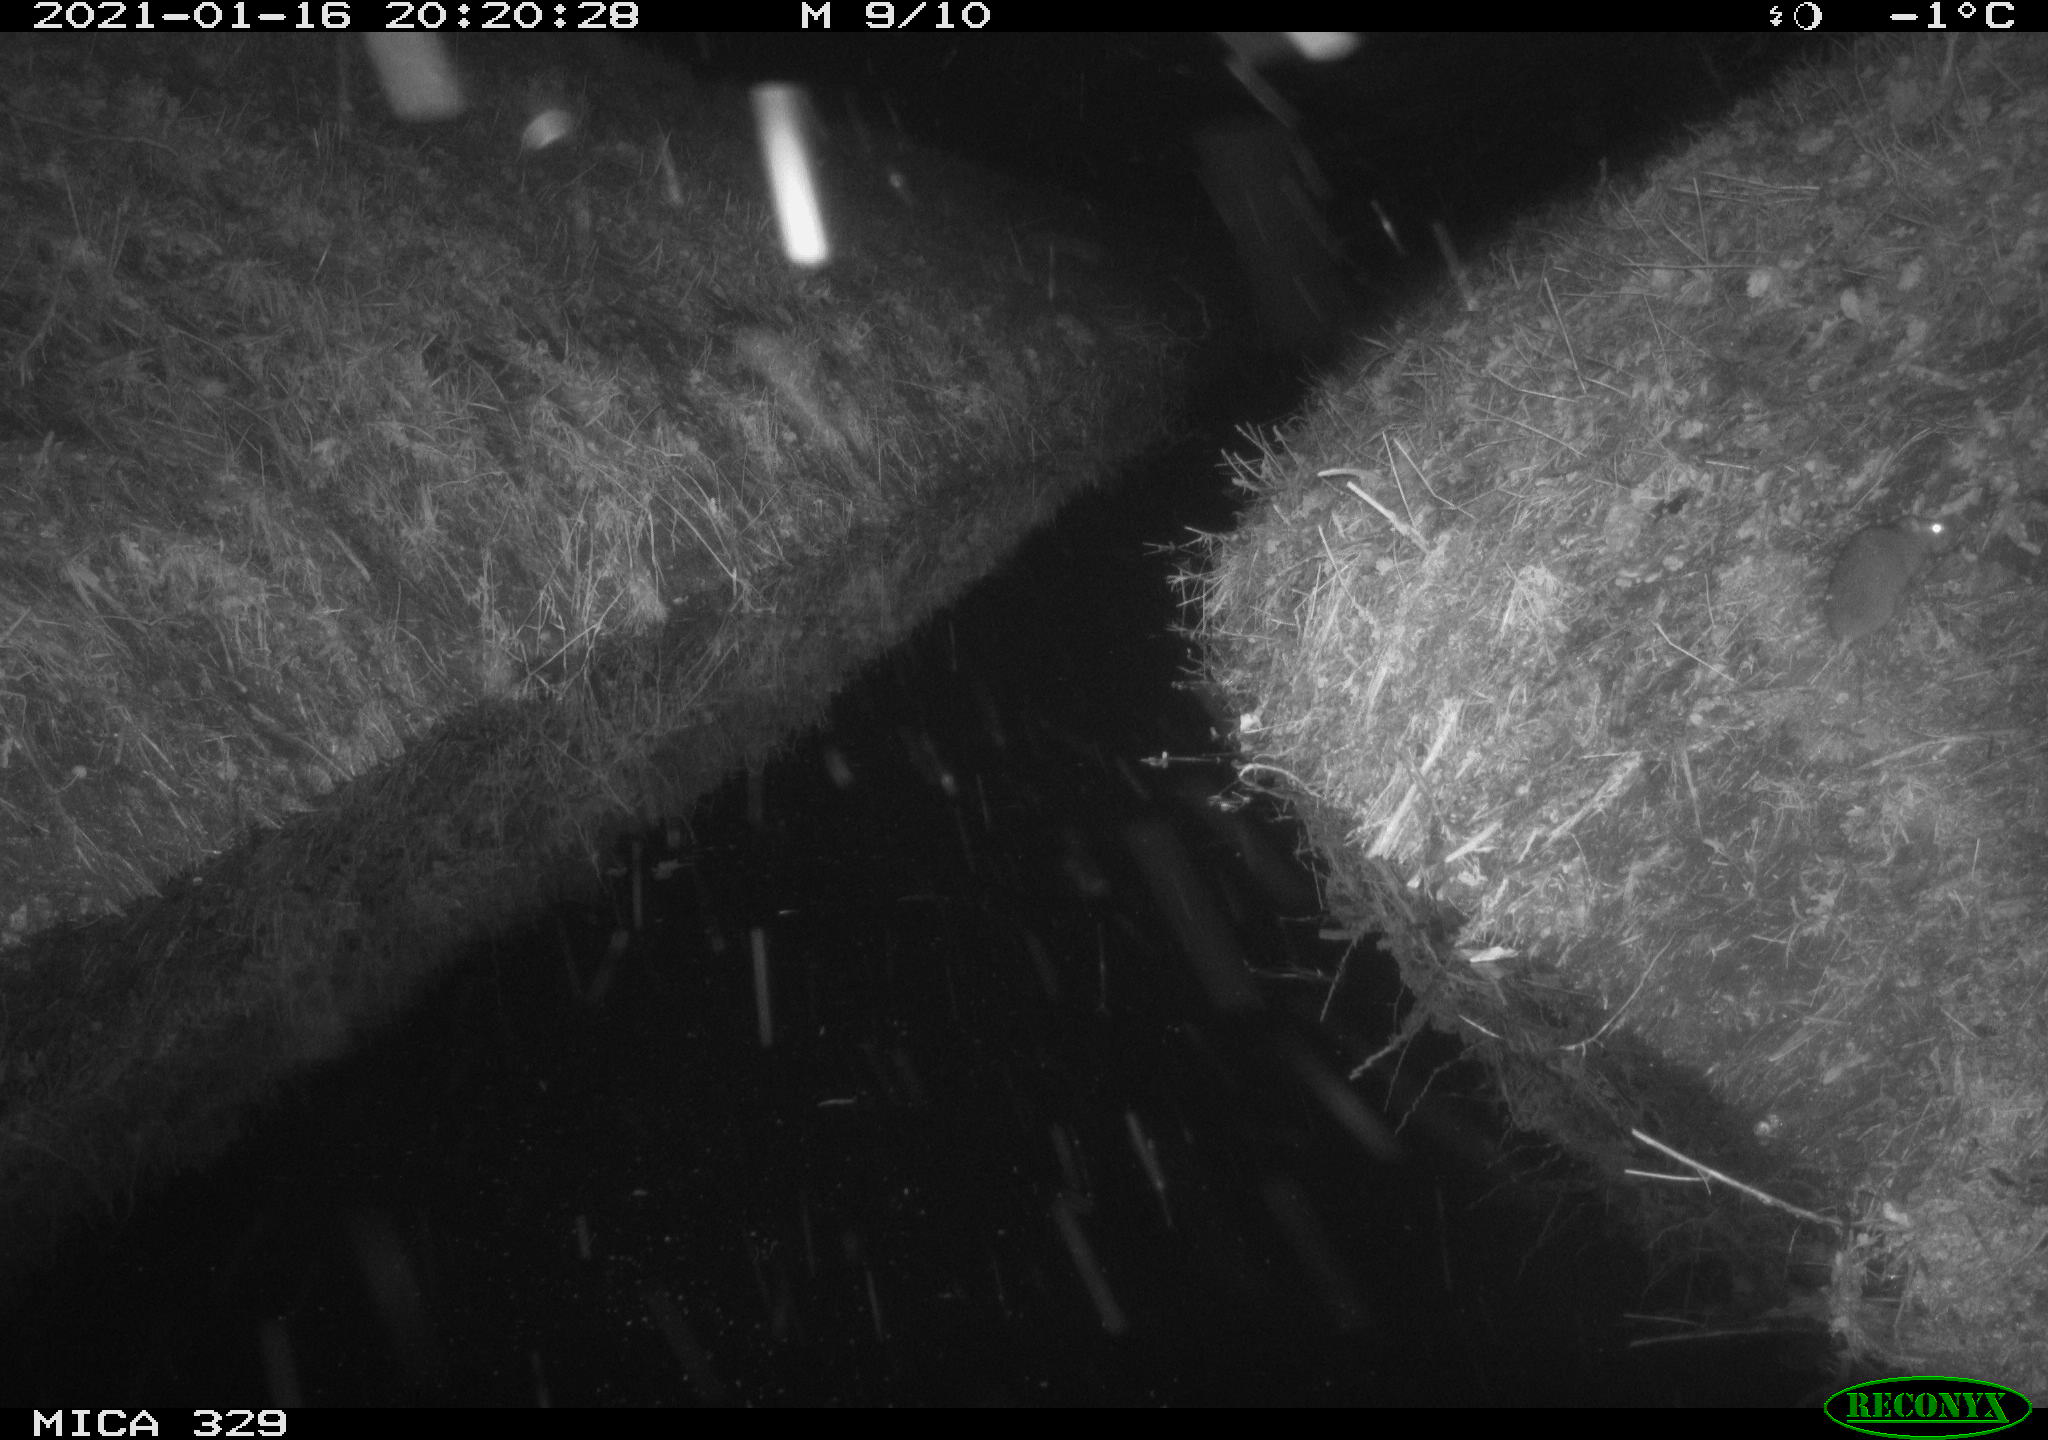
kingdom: Animalia
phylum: Chordata
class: Mammalia
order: Rodentia
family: Muridae
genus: Rattus
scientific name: Rattus norvegicus
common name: Brown rat
